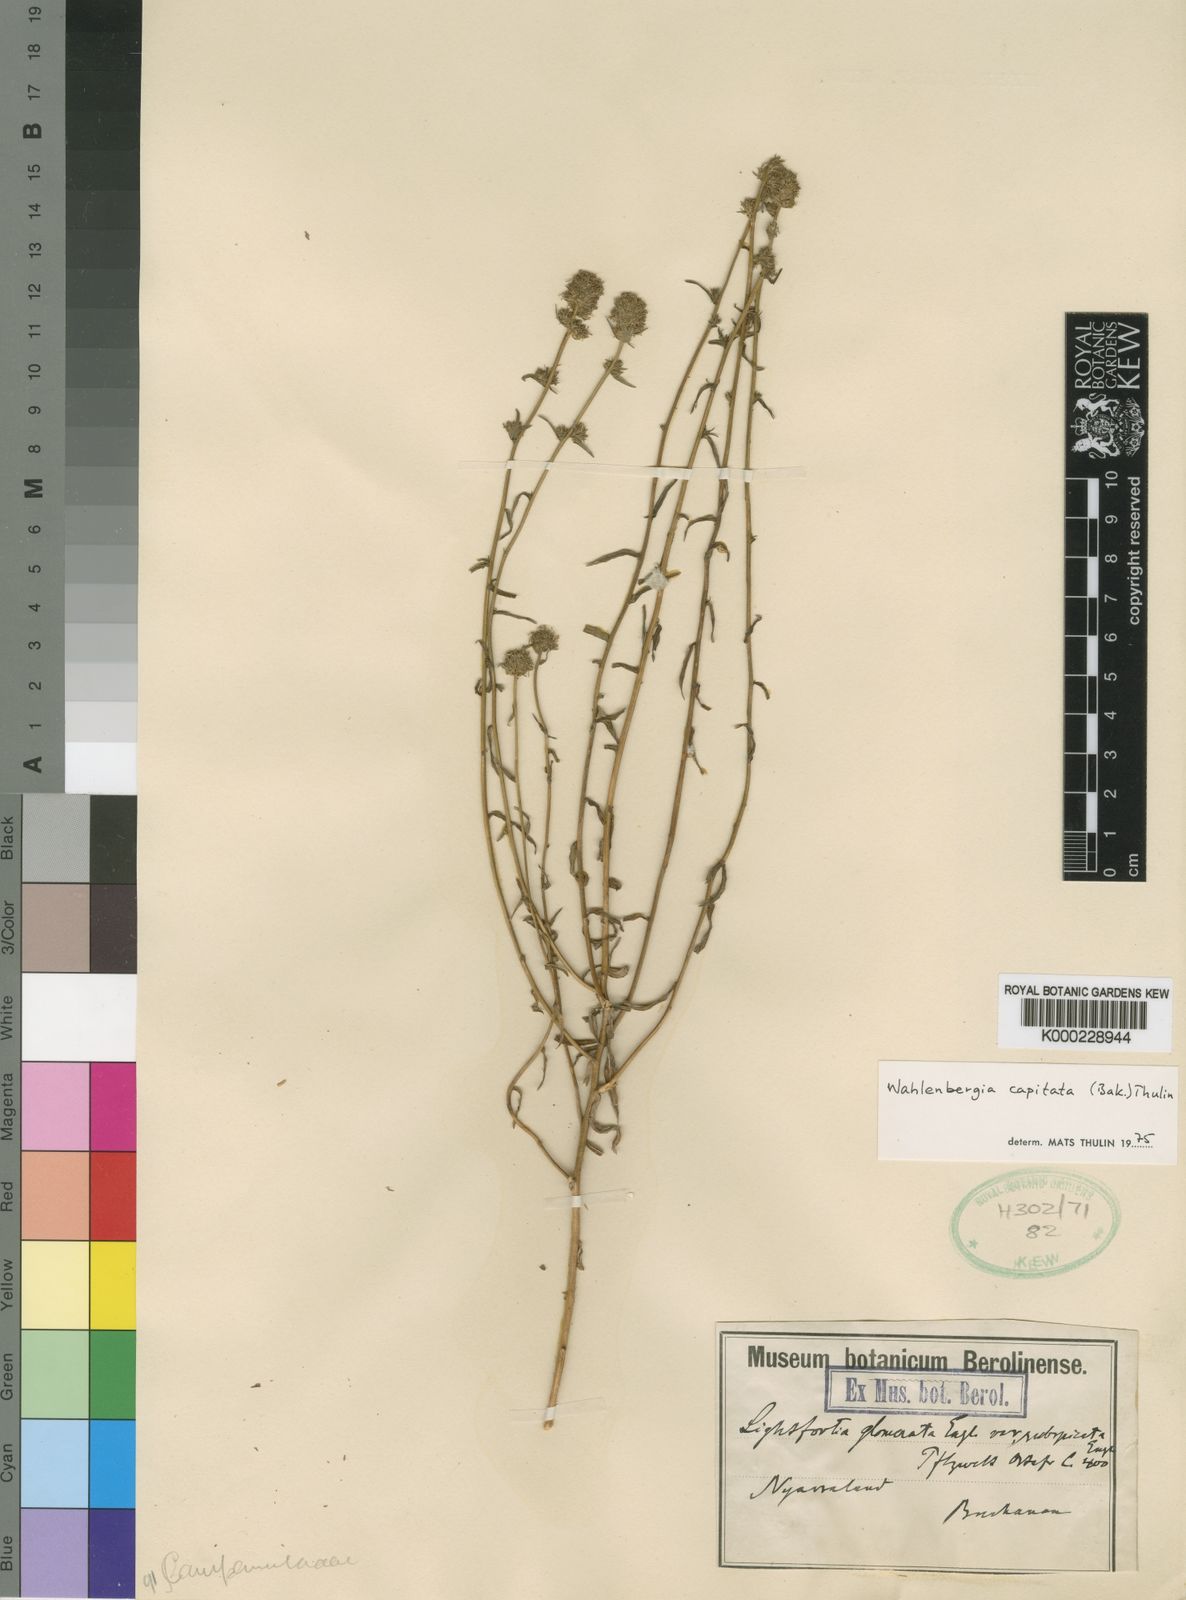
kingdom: Plantae
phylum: Tracheophyta
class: Magnoliopsida
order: Asterales
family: Campanulaceae
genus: Wahlenbergia
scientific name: Wahlenbergia capitata
